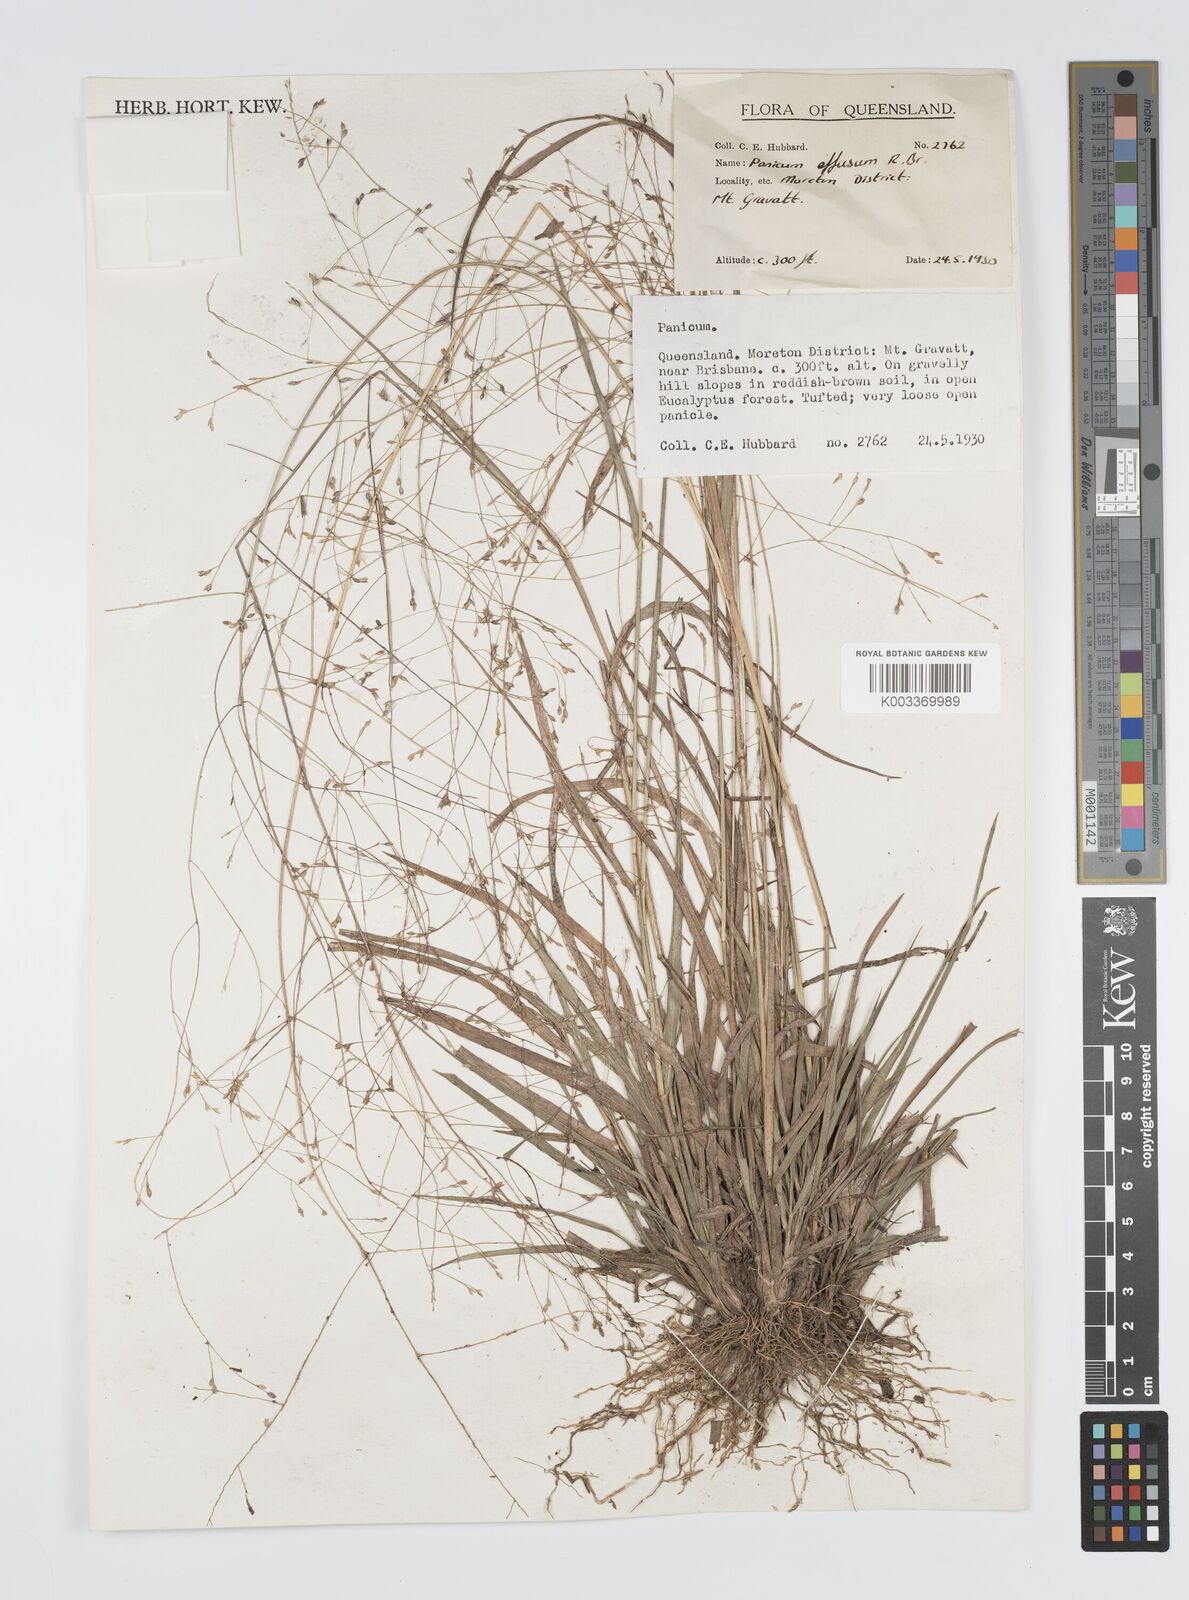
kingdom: Plantae
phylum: Tracheophyta
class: Liliopsida
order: Poales
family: Poaceae
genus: Panicum
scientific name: Panicum effusum
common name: Hairy panic grass
